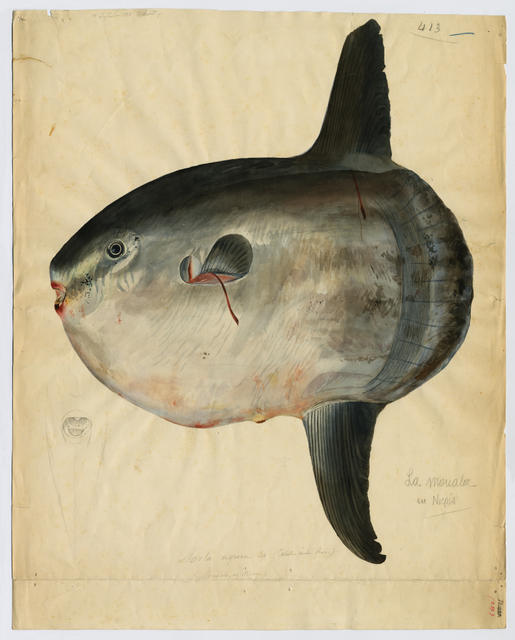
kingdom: Animalia
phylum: Chordata
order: Tetraodontiformes
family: Molidae
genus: Mola
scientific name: Mola mola
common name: Ocean sunfish
